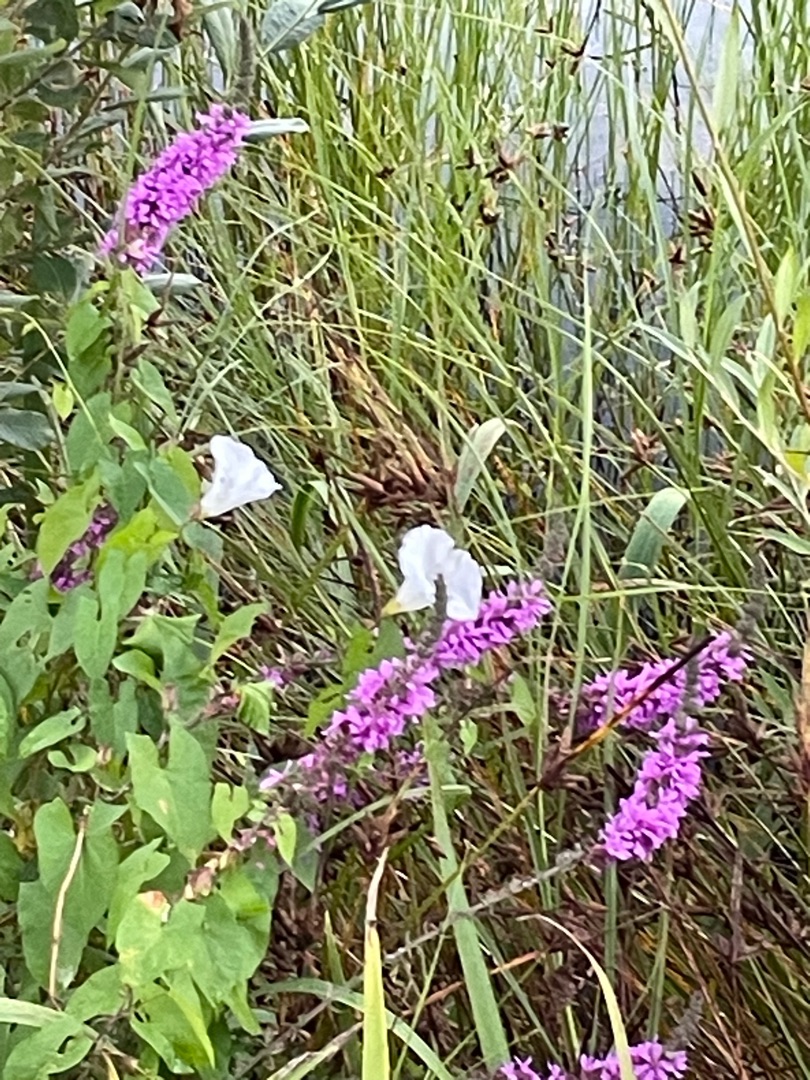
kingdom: Plantae
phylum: Tracheophyta
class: Magnoliopsida
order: Myrtales
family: Lythraceae
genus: Lythrum
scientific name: Lythrum salicaria
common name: Kattehale
